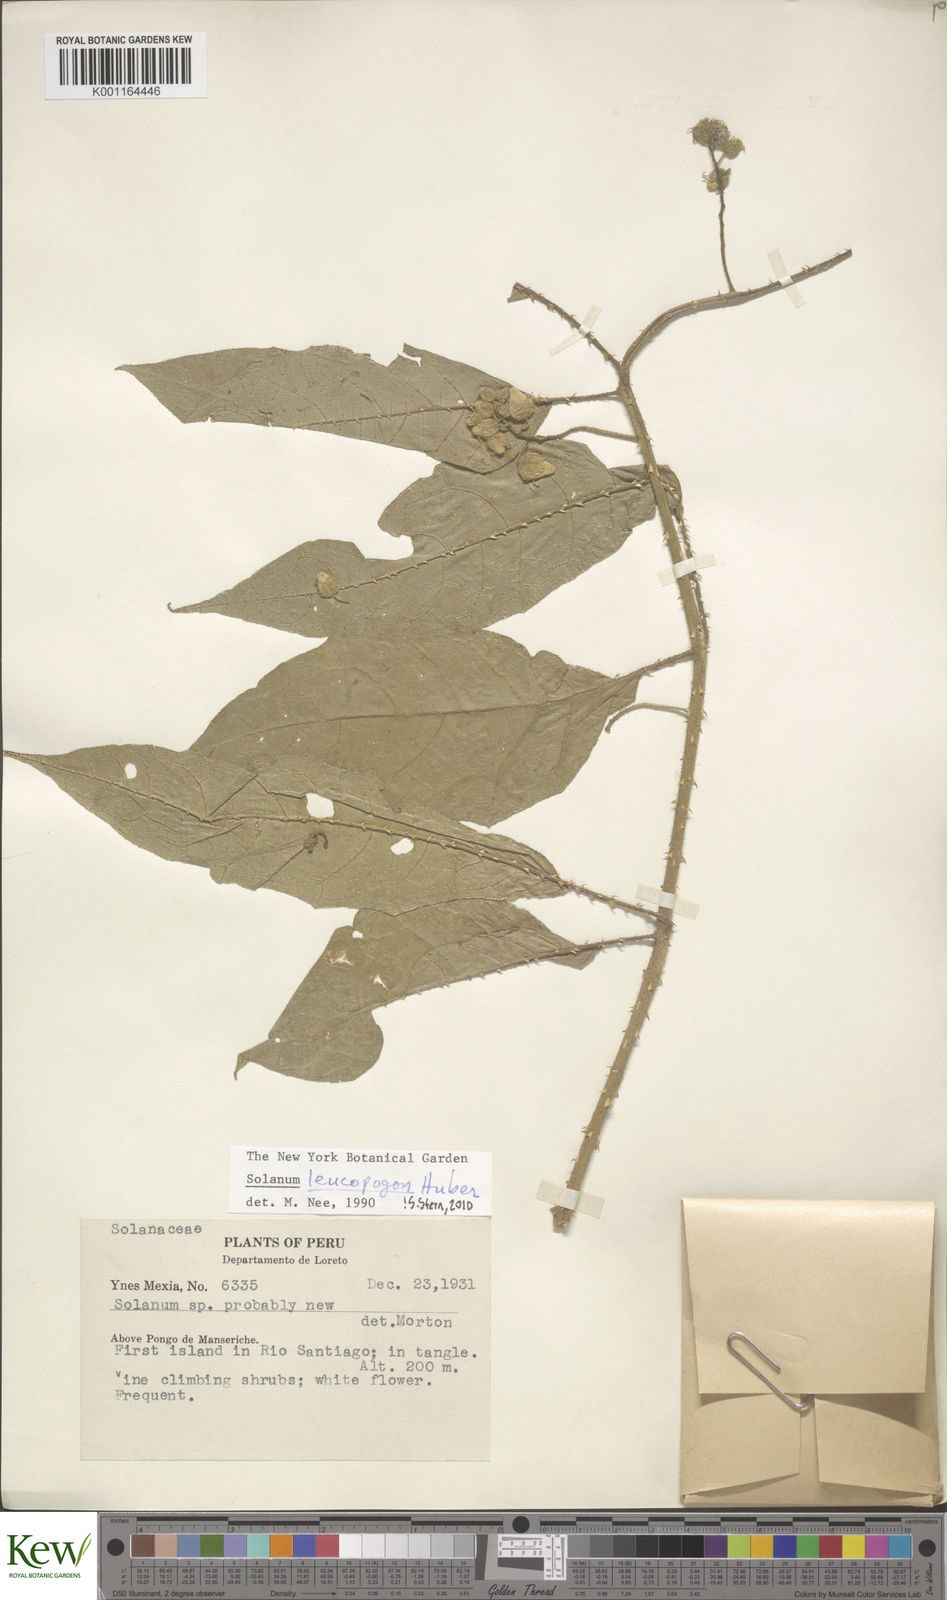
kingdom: Plantae
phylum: Tracheophyta
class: Magnoliopsida
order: Solanales
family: Solanaceae
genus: Solanum
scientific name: Solanum leucopogon
